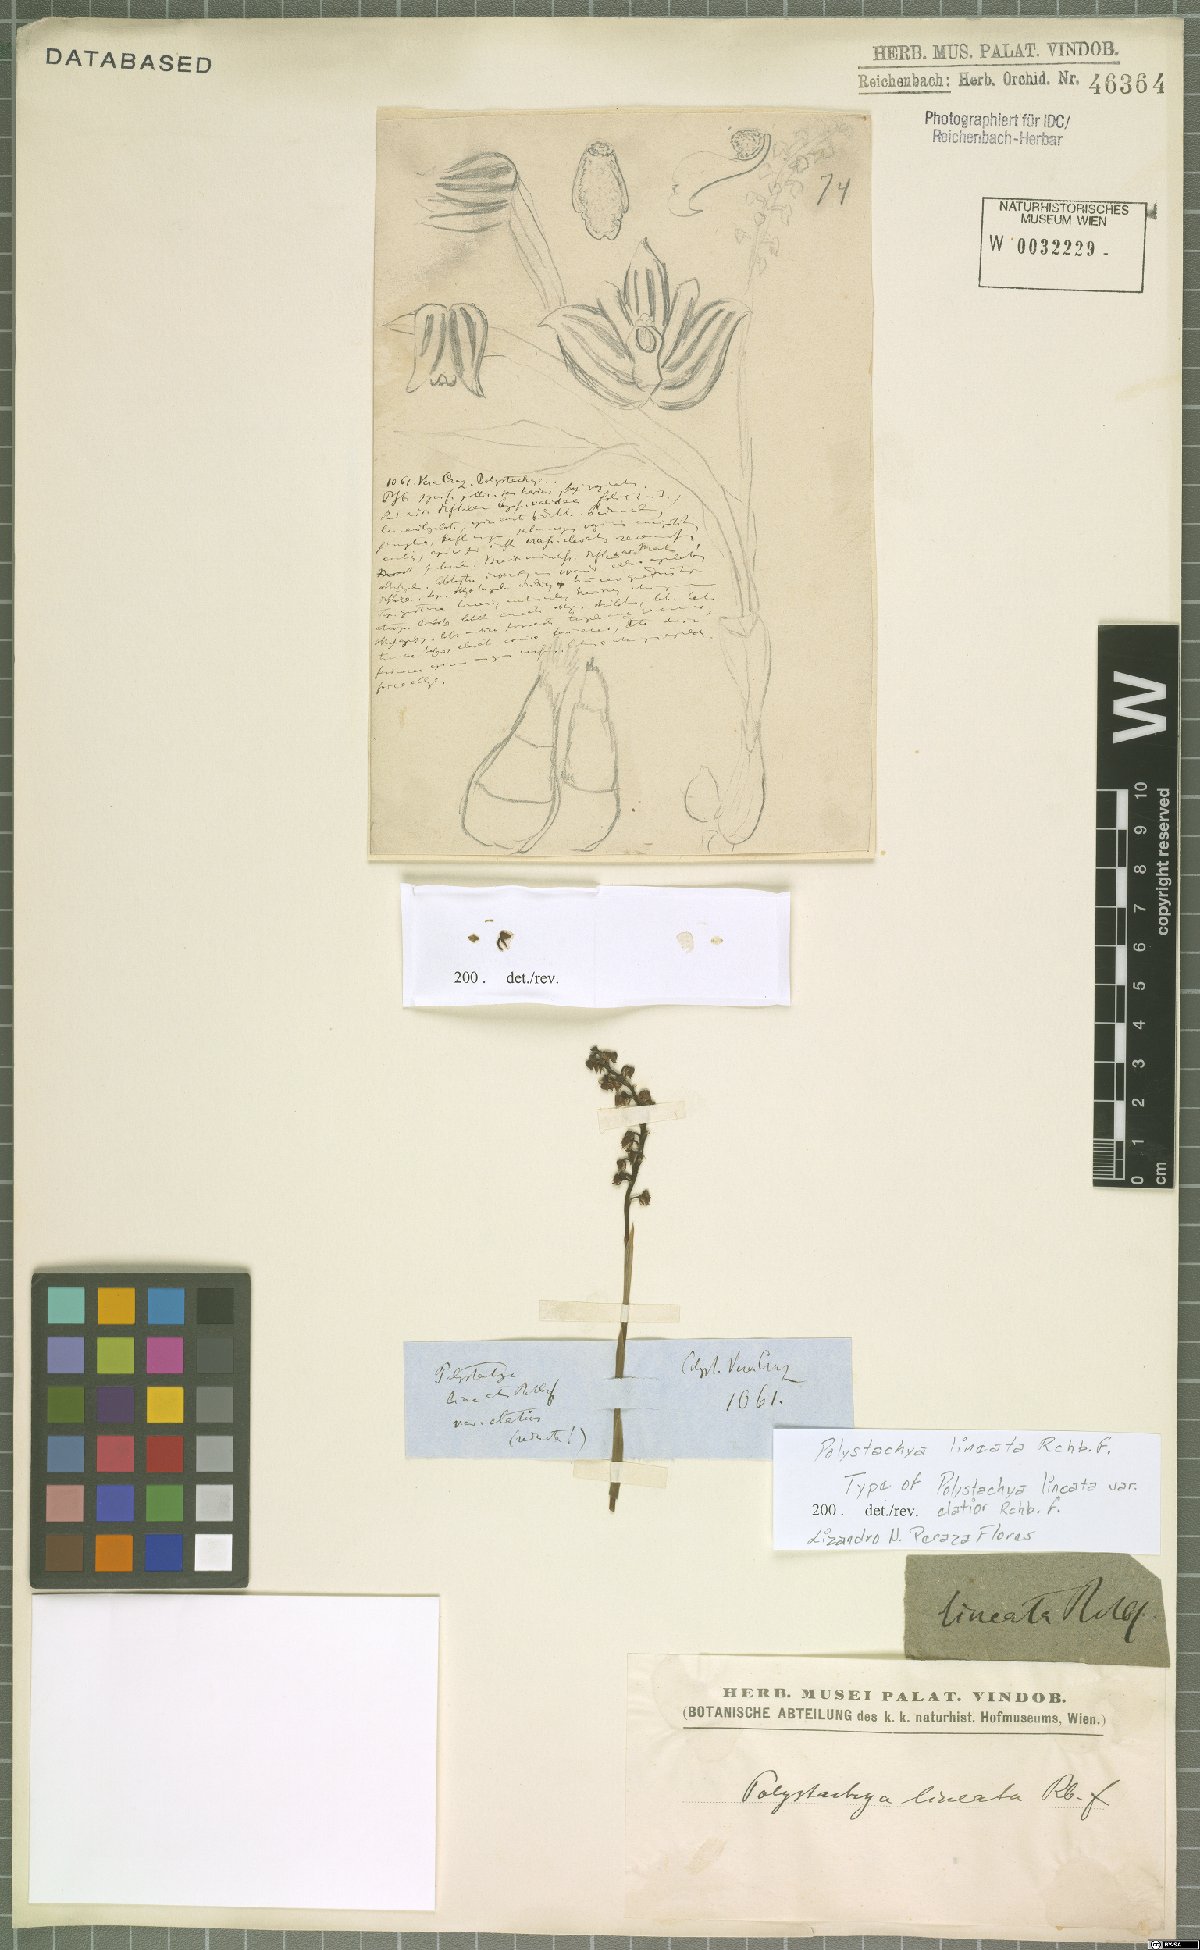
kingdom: Plantae
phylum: Tracheophyta
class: Liliopsida
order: Asparagales
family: Orchidaceae
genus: Polystachya
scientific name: Polystachya lineata
